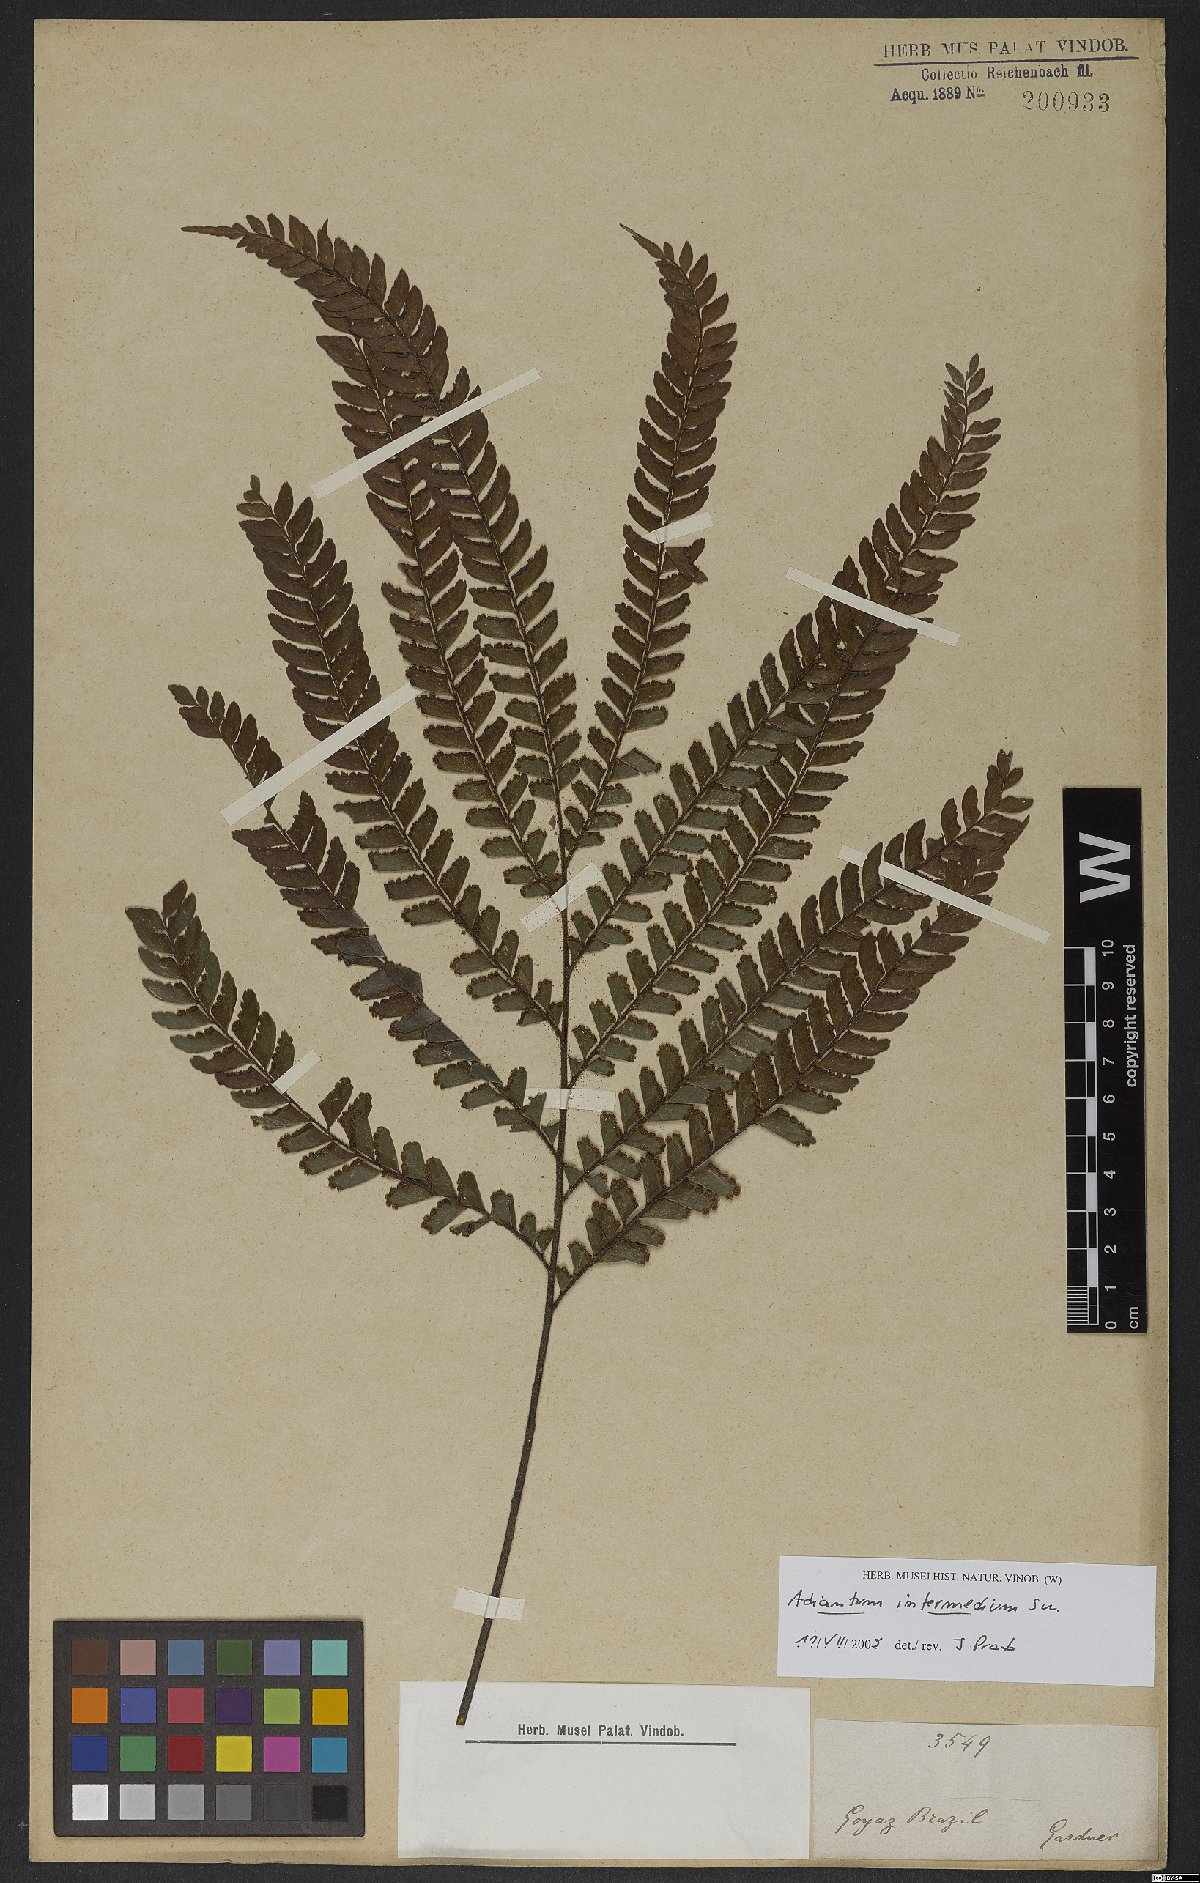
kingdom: Plantae
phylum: Tracheophyta
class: Polypodiopsida
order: Polypodiales
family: Pteridaceae
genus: Adiantum
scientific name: Adiantum intermedium
